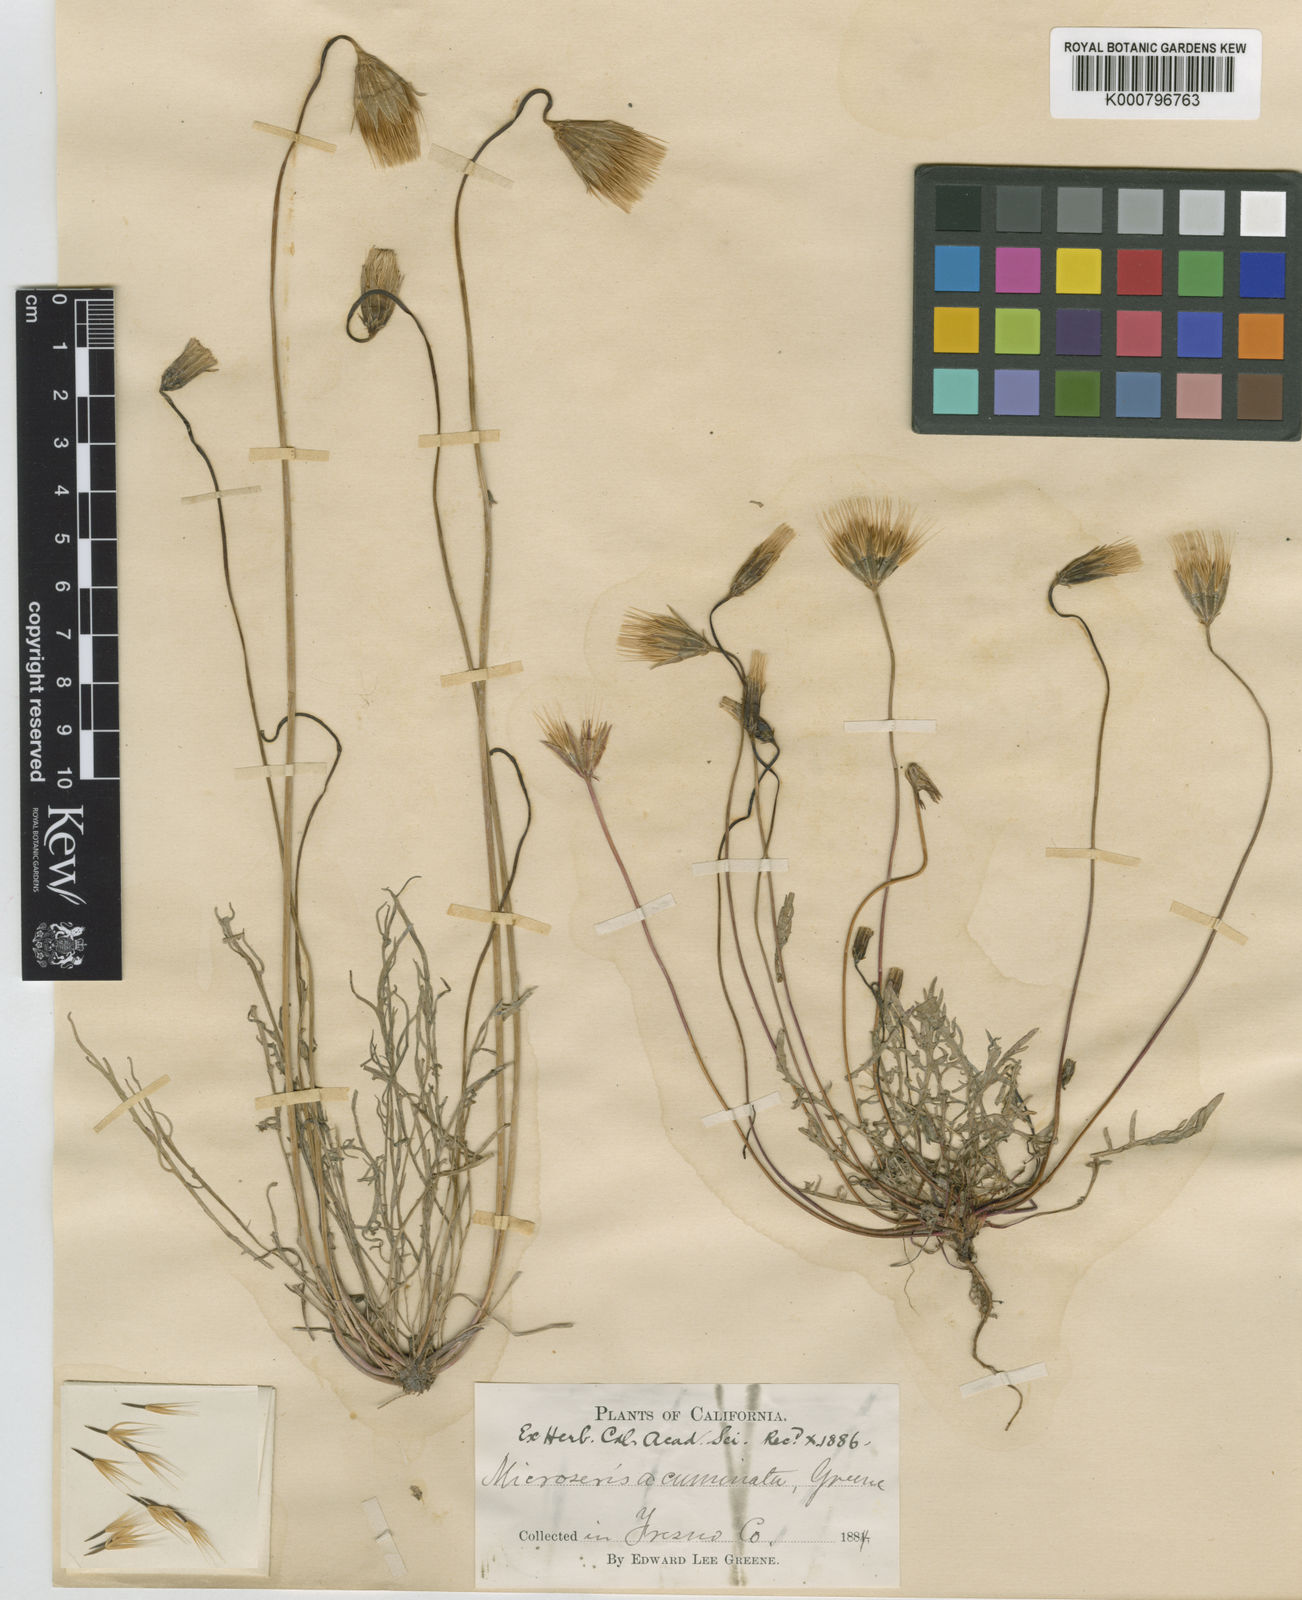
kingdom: Plantae
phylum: Tracheophyta
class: Magnoliopsida
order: Asterales
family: Asteraceae
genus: Microseris
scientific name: Microseris douglasii
